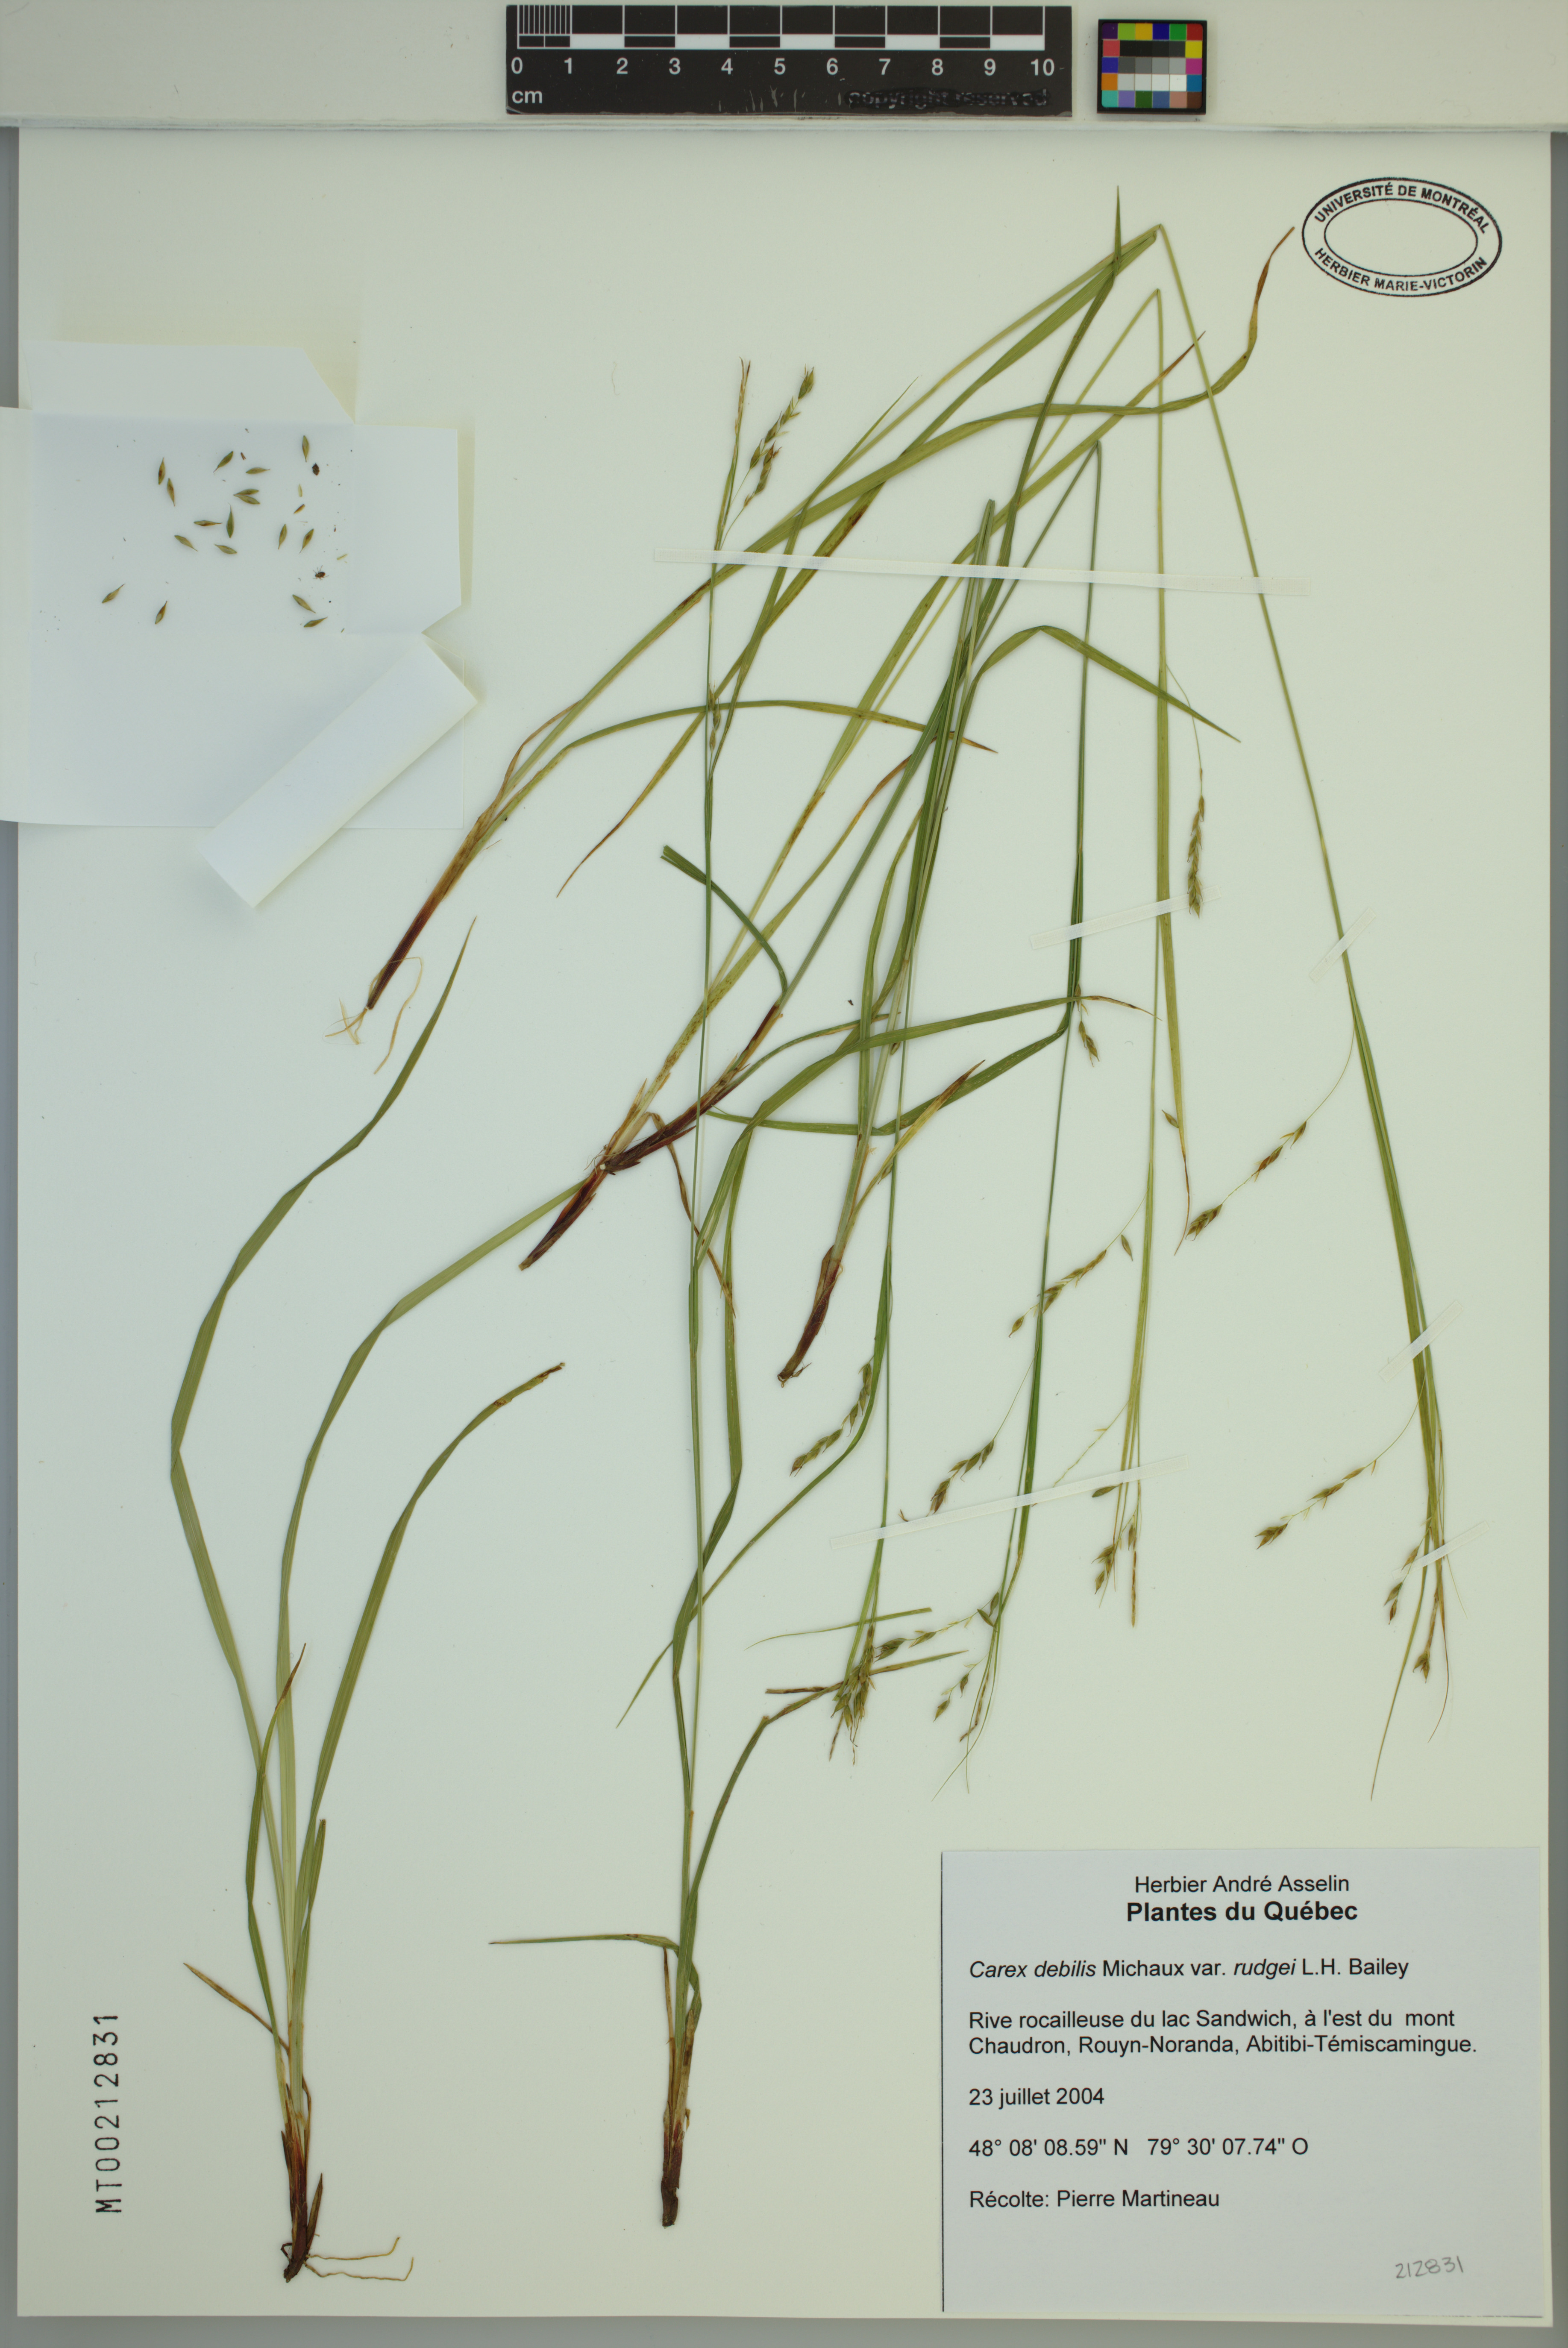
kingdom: Plantae
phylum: Tracheophyta
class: Liliopsida
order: Poales
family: Cyperaceae
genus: Carex
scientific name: Carex debilis
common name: White-edge sedge
